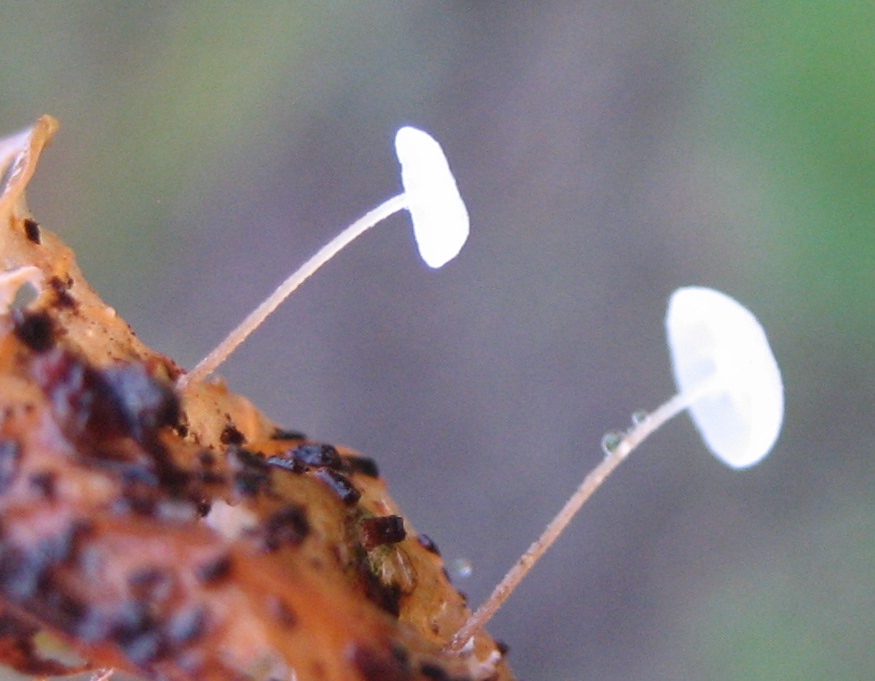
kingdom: Fungi
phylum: Basidiomycota
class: Agaricomycetes
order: Agaricales
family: Marasmiaceae
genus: Marasmius
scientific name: Marasmius epiphylloides
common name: vedbend-bruskhat
